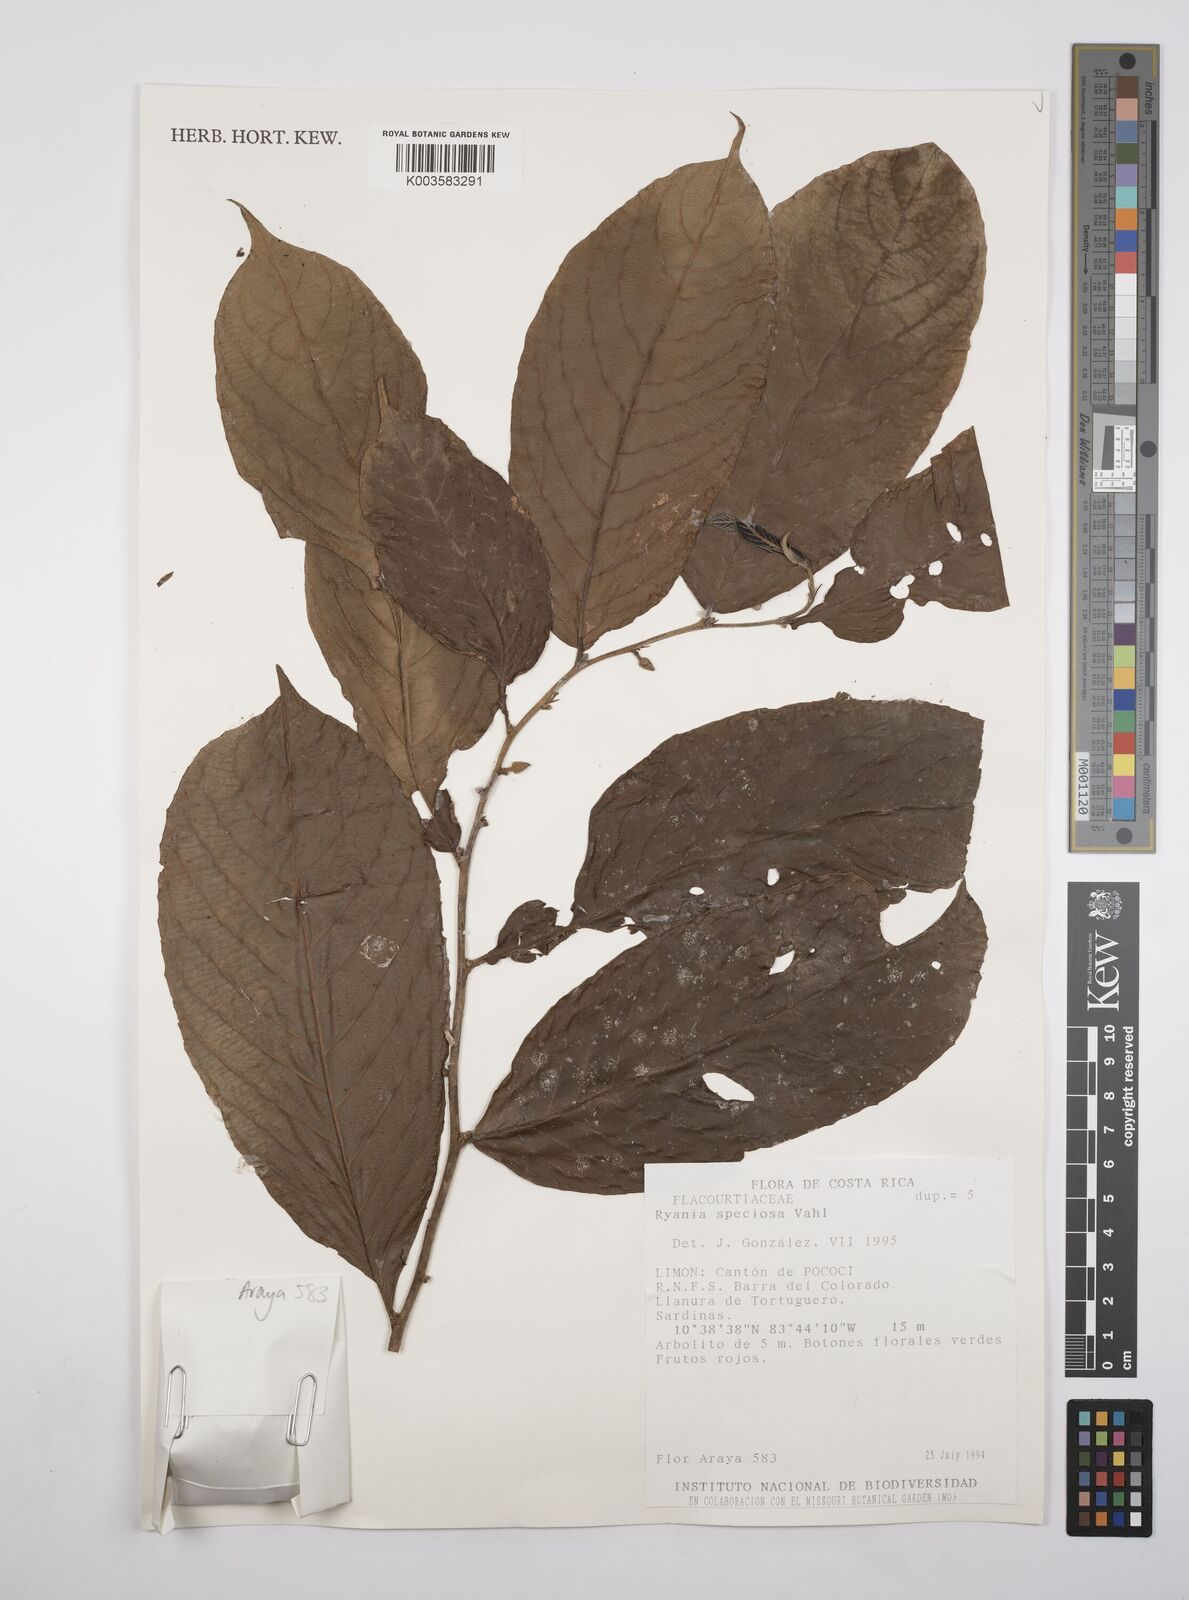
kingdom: Plantae
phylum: Tracheophyta
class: Magnoliopsida
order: Malpighiales
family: Salicaceae
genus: Ryania
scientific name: Ryania speciosa
